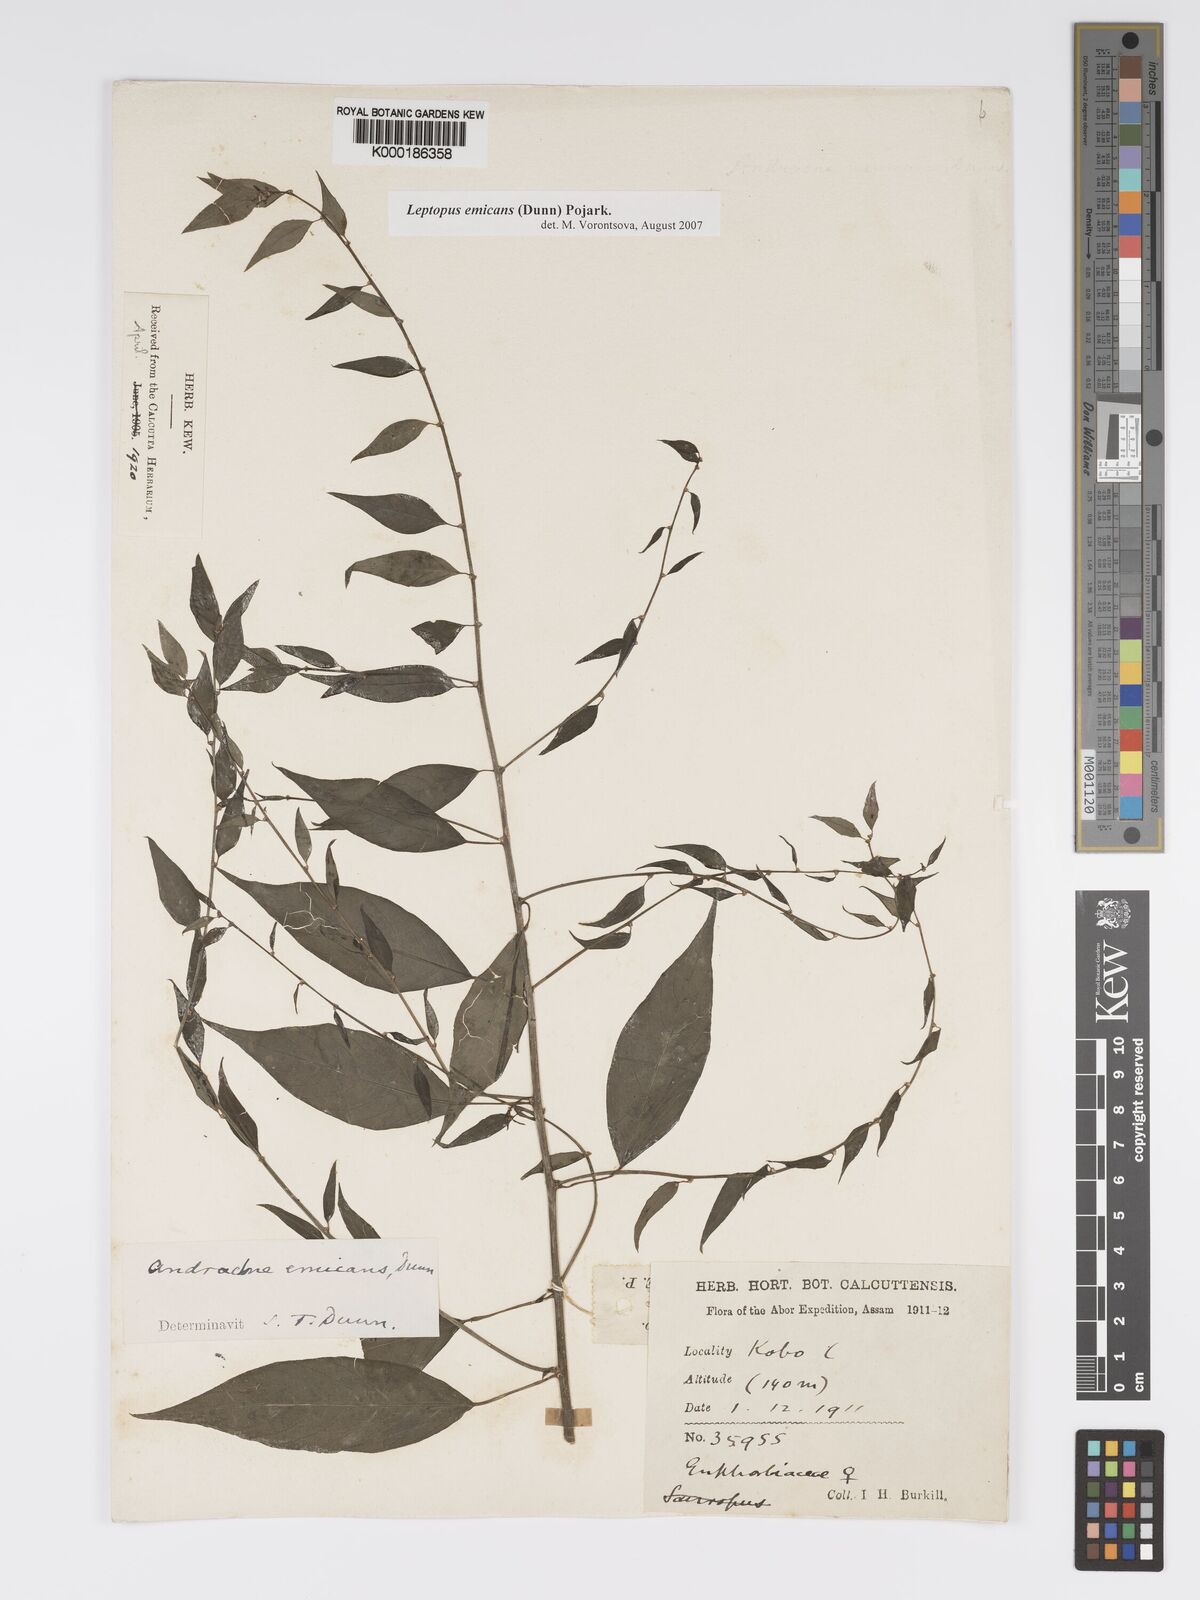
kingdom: Plantae
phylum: Tracheophyta
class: Magnoliopsida
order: Malpighiales
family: Phyllanthaceae
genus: Leptopus
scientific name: Leptopus emicans
